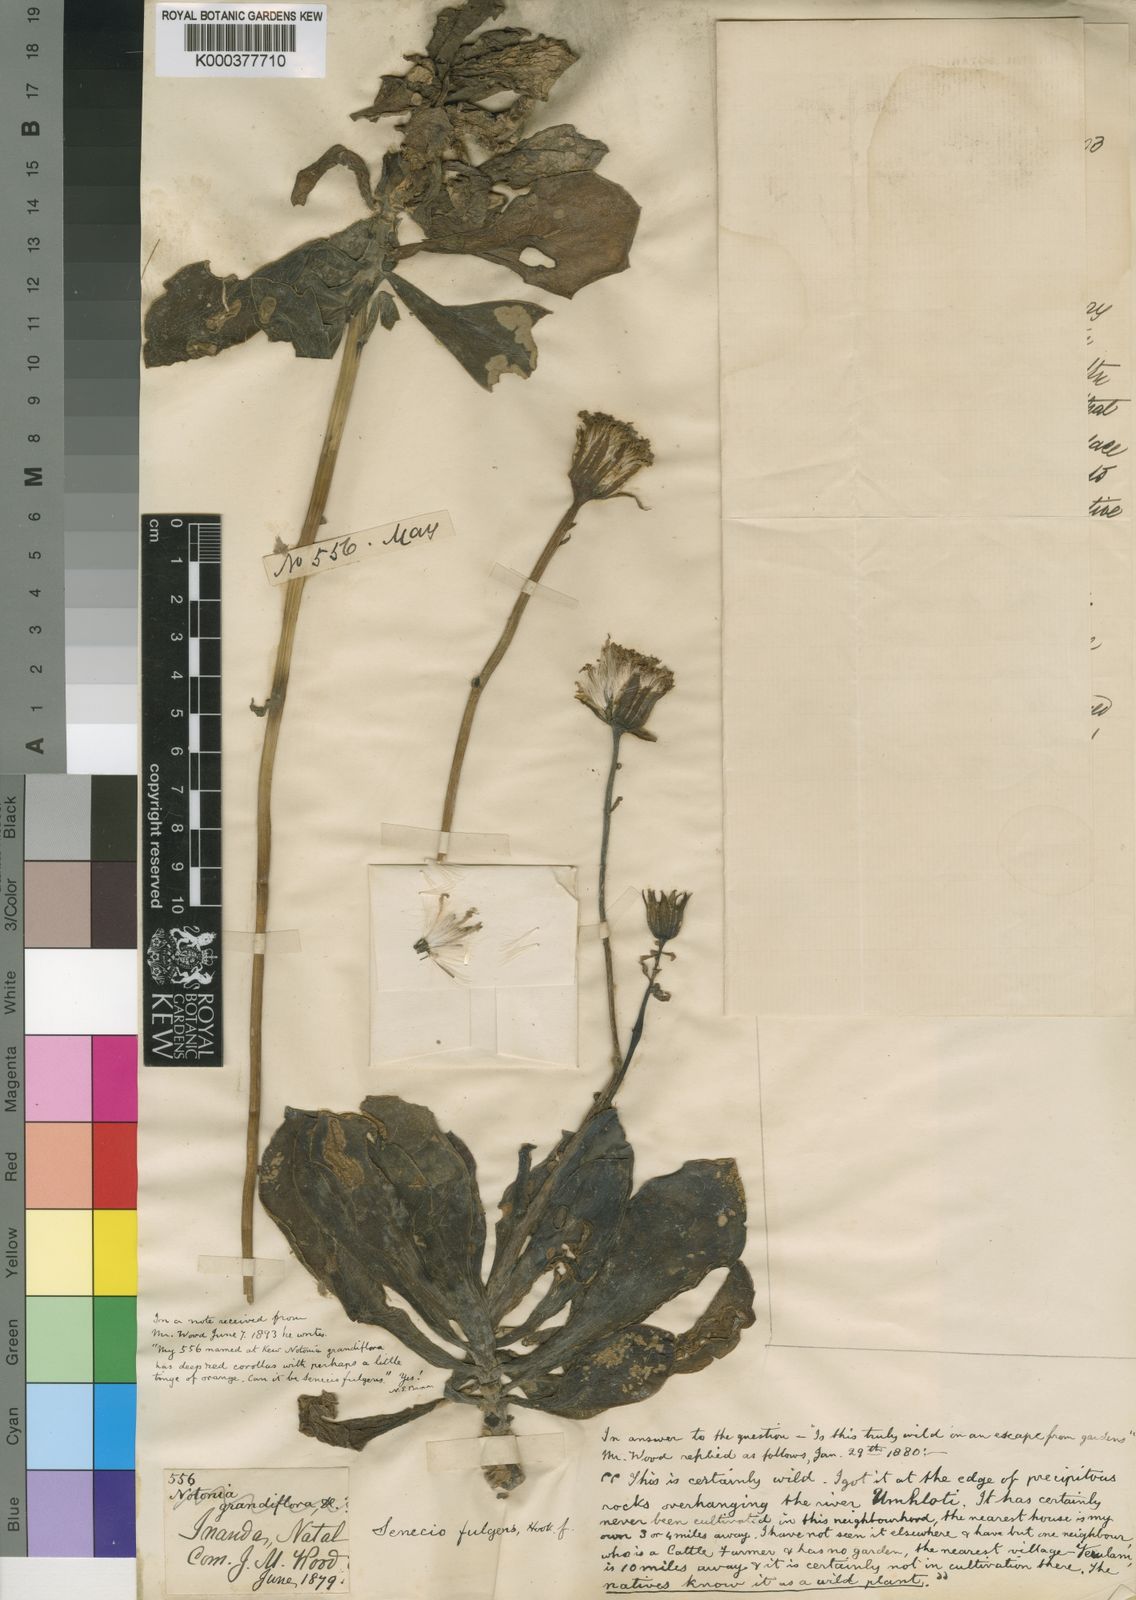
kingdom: Plantae
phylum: Tracheophyta
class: Magnoliopsida
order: Asterales
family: Asteraceae
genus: Kleinia
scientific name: Kleinia fulgens
